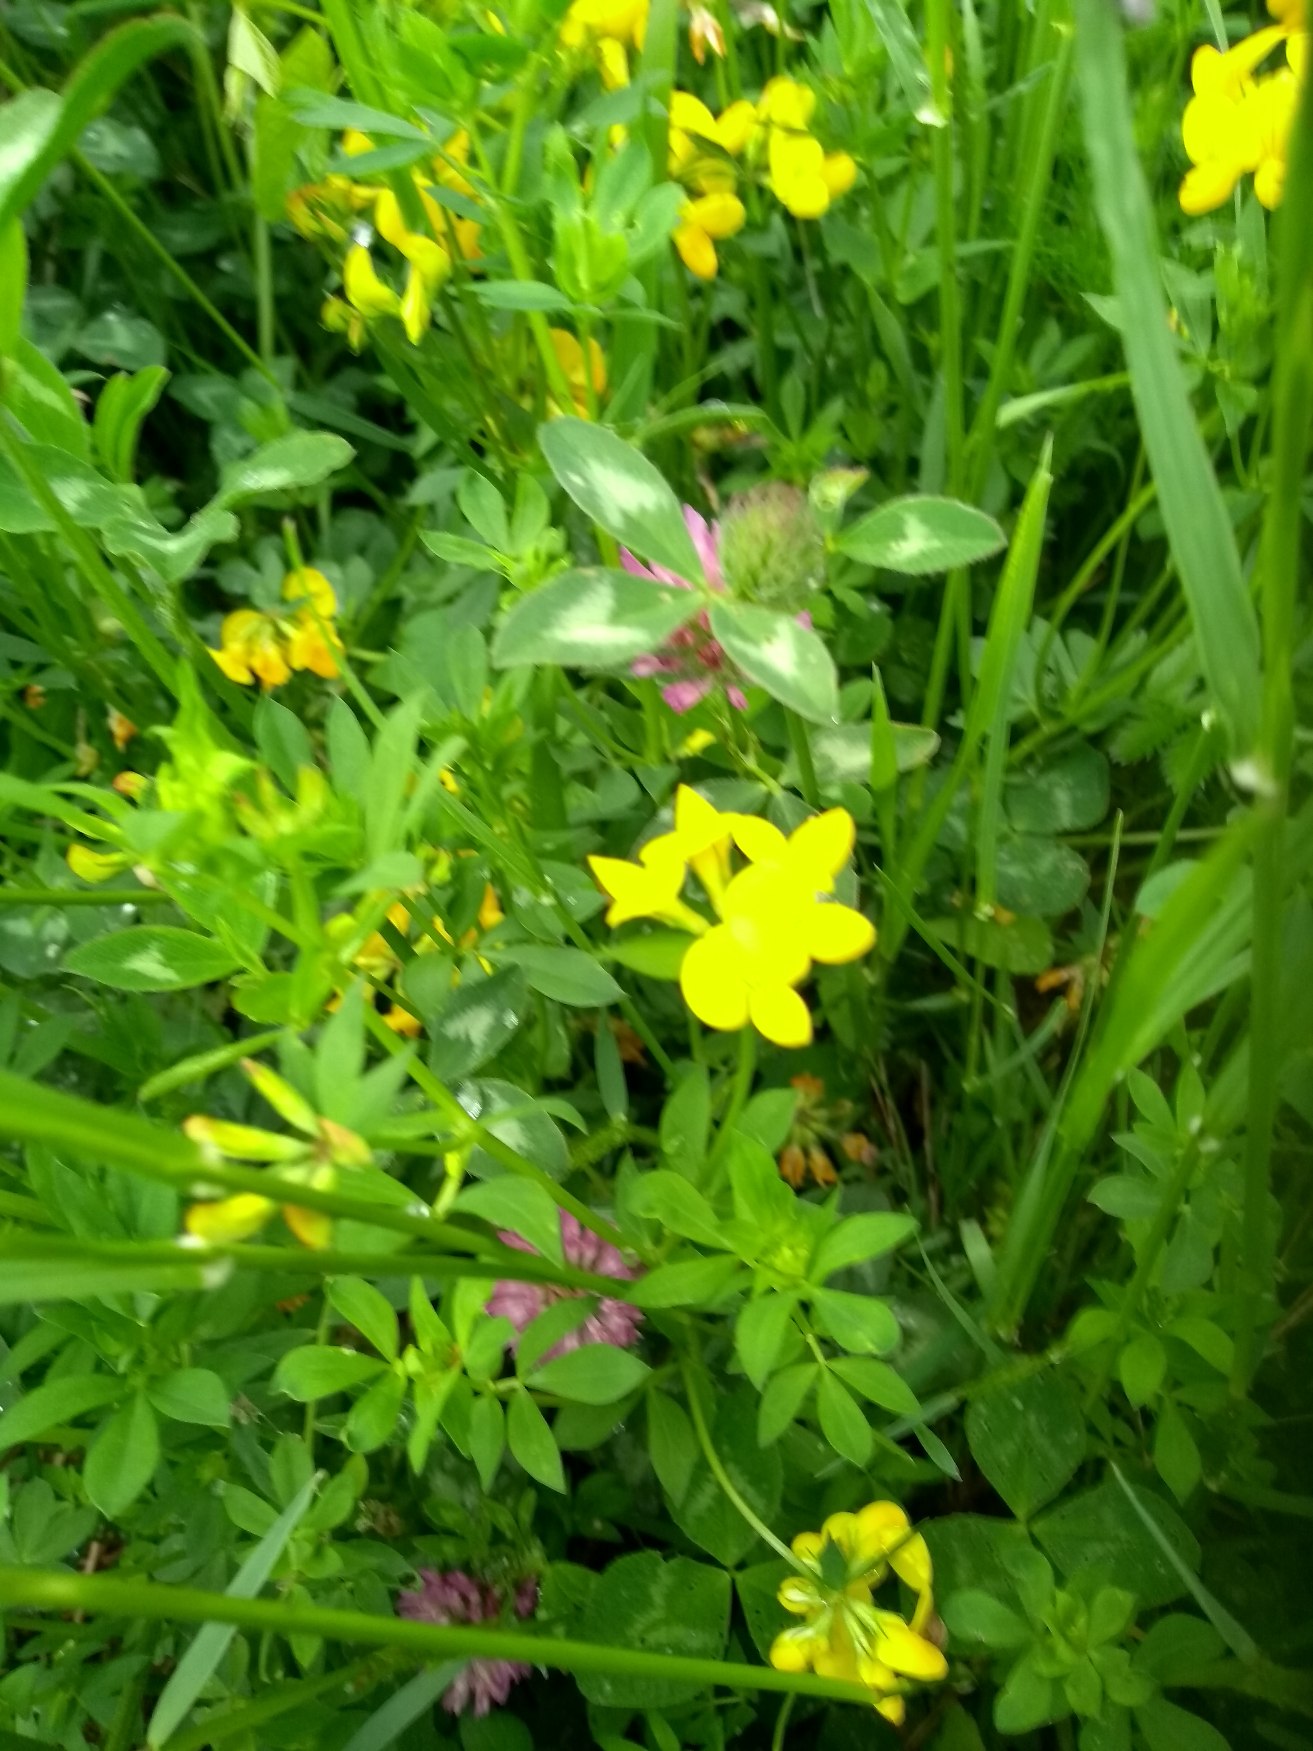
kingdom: Plantae
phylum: Tracheophyta
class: Magnoliopsida
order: Fabales
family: Fabaceae
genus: Lotus
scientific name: Lotus corniculatus
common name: Almindelig kællingetand
